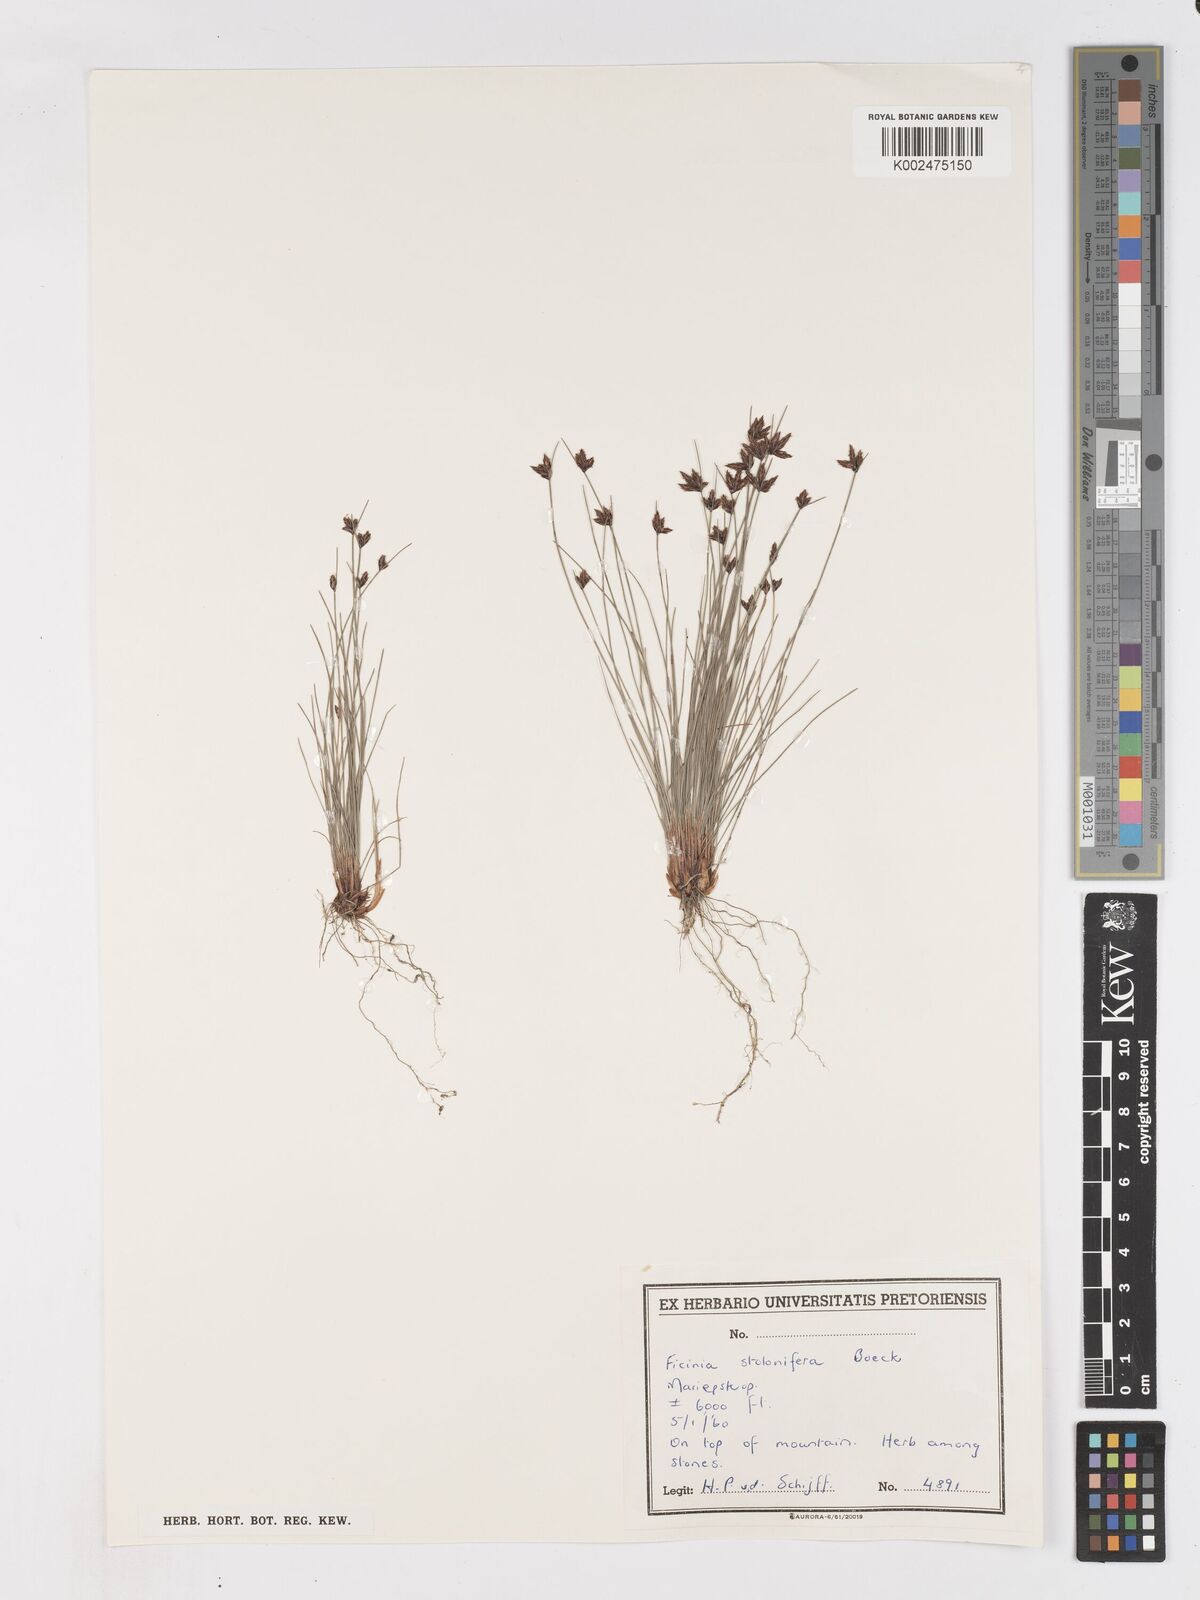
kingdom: Plantae
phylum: Tracheophyta
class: Liliopsida
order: Poales
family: Cyperaceae
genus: Ficinia
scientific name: Ficinia stolonifera
